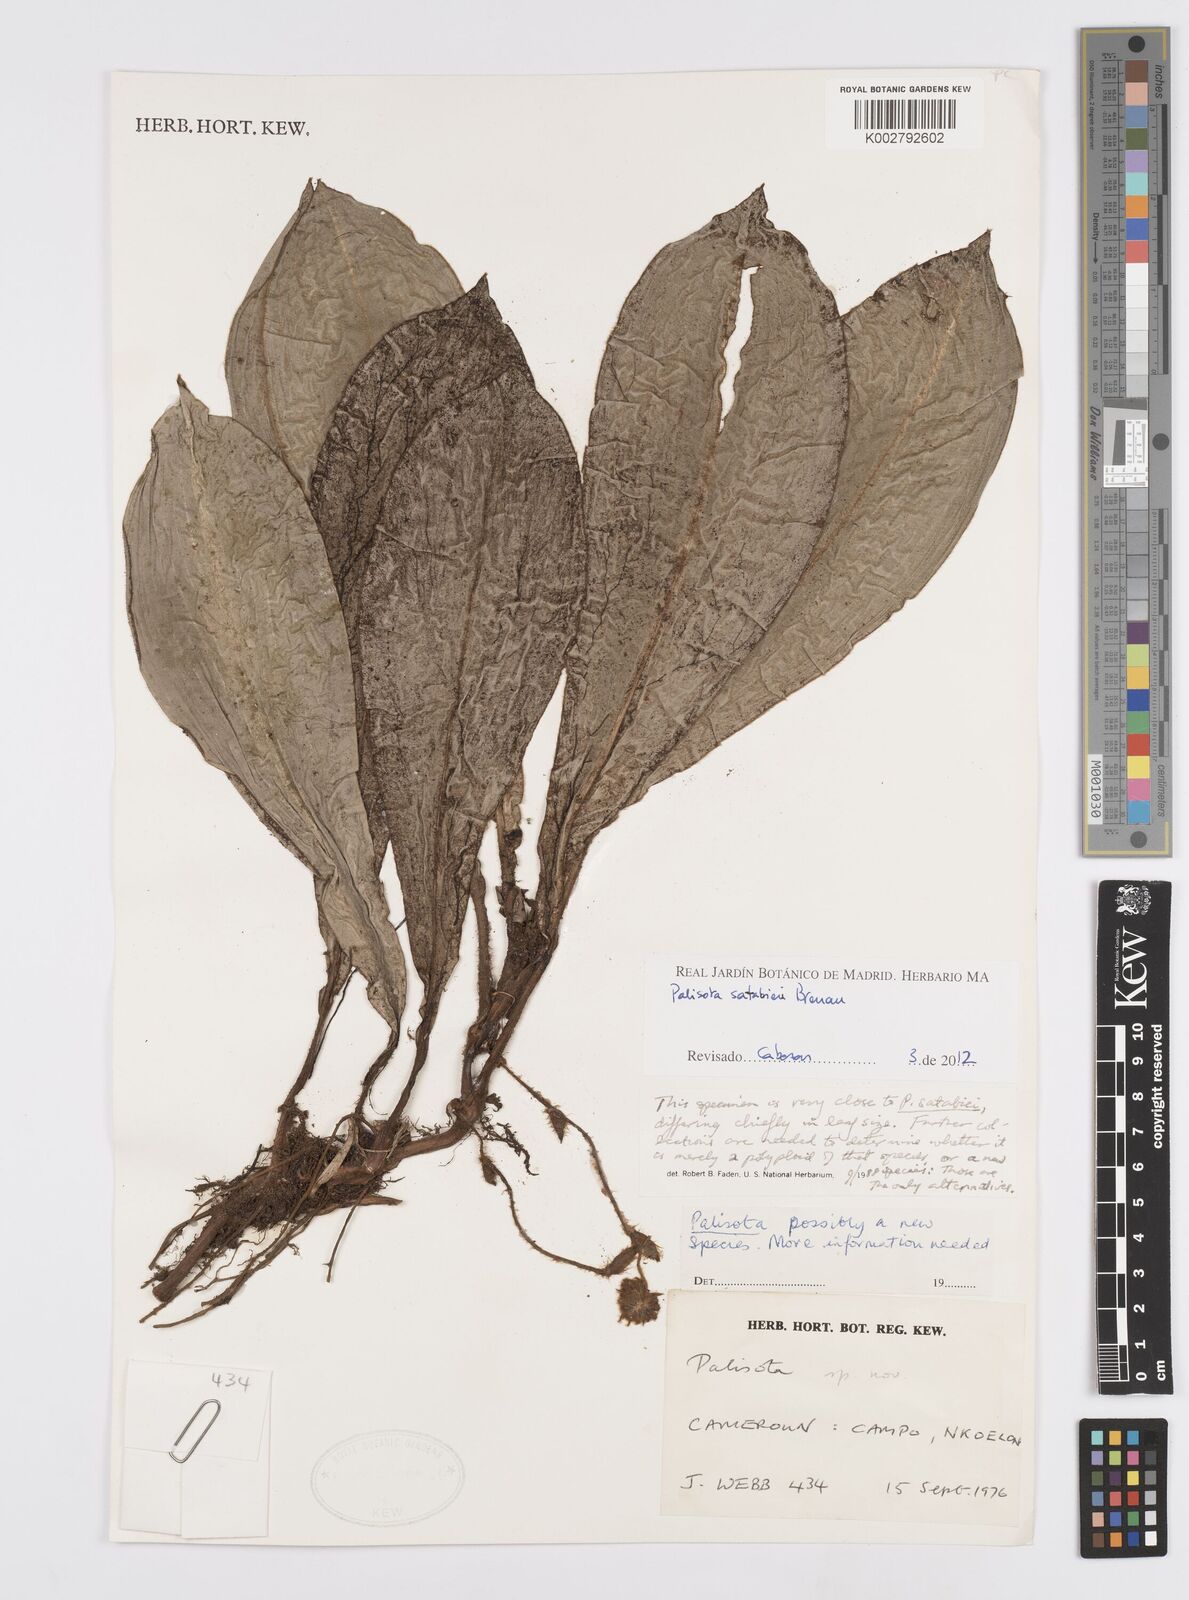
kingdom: Plantae
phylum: Tracheophyta
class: Liliopsida
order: Commelinales
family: Commelinaceae
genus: Palisota
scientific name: Palisota satabiei
